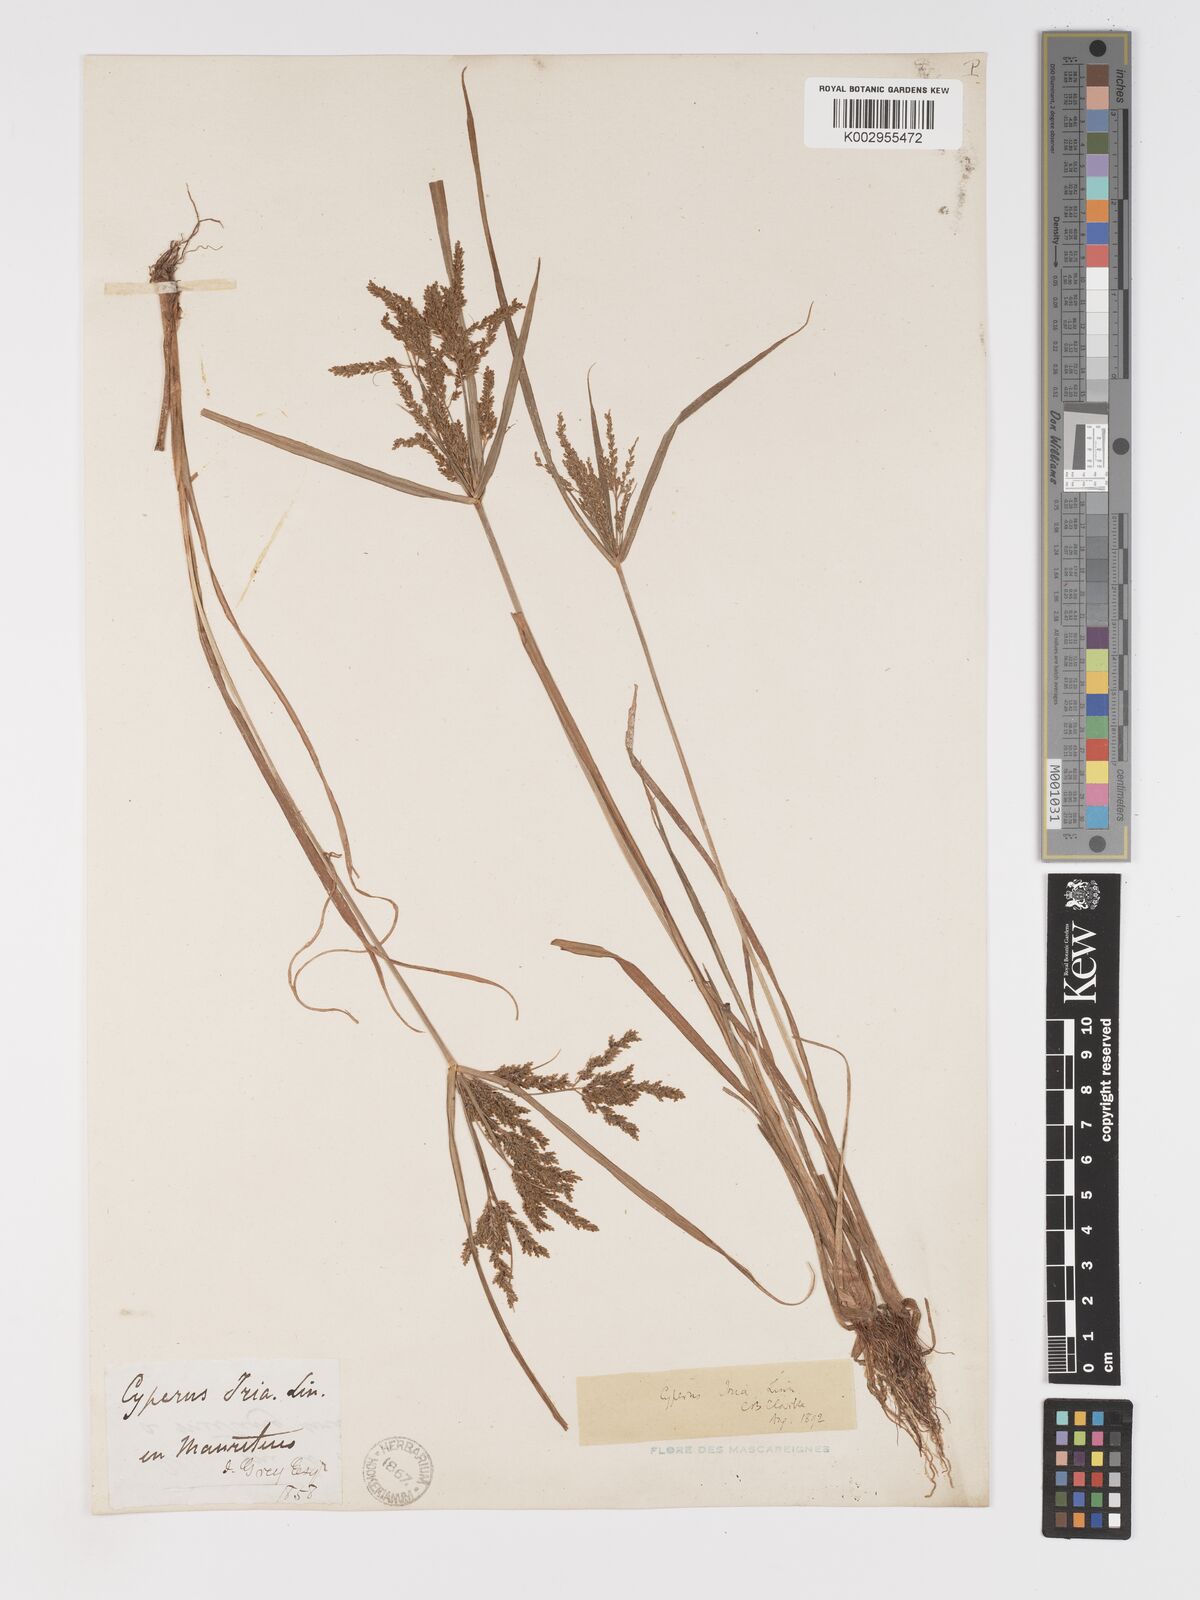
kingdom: Plantae
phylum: Tracheophyta
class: Liliopsida
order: Poales
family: Cyperaceae
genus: Cyperus
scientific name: Cyperus iria
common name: Ricefield flatsedge
